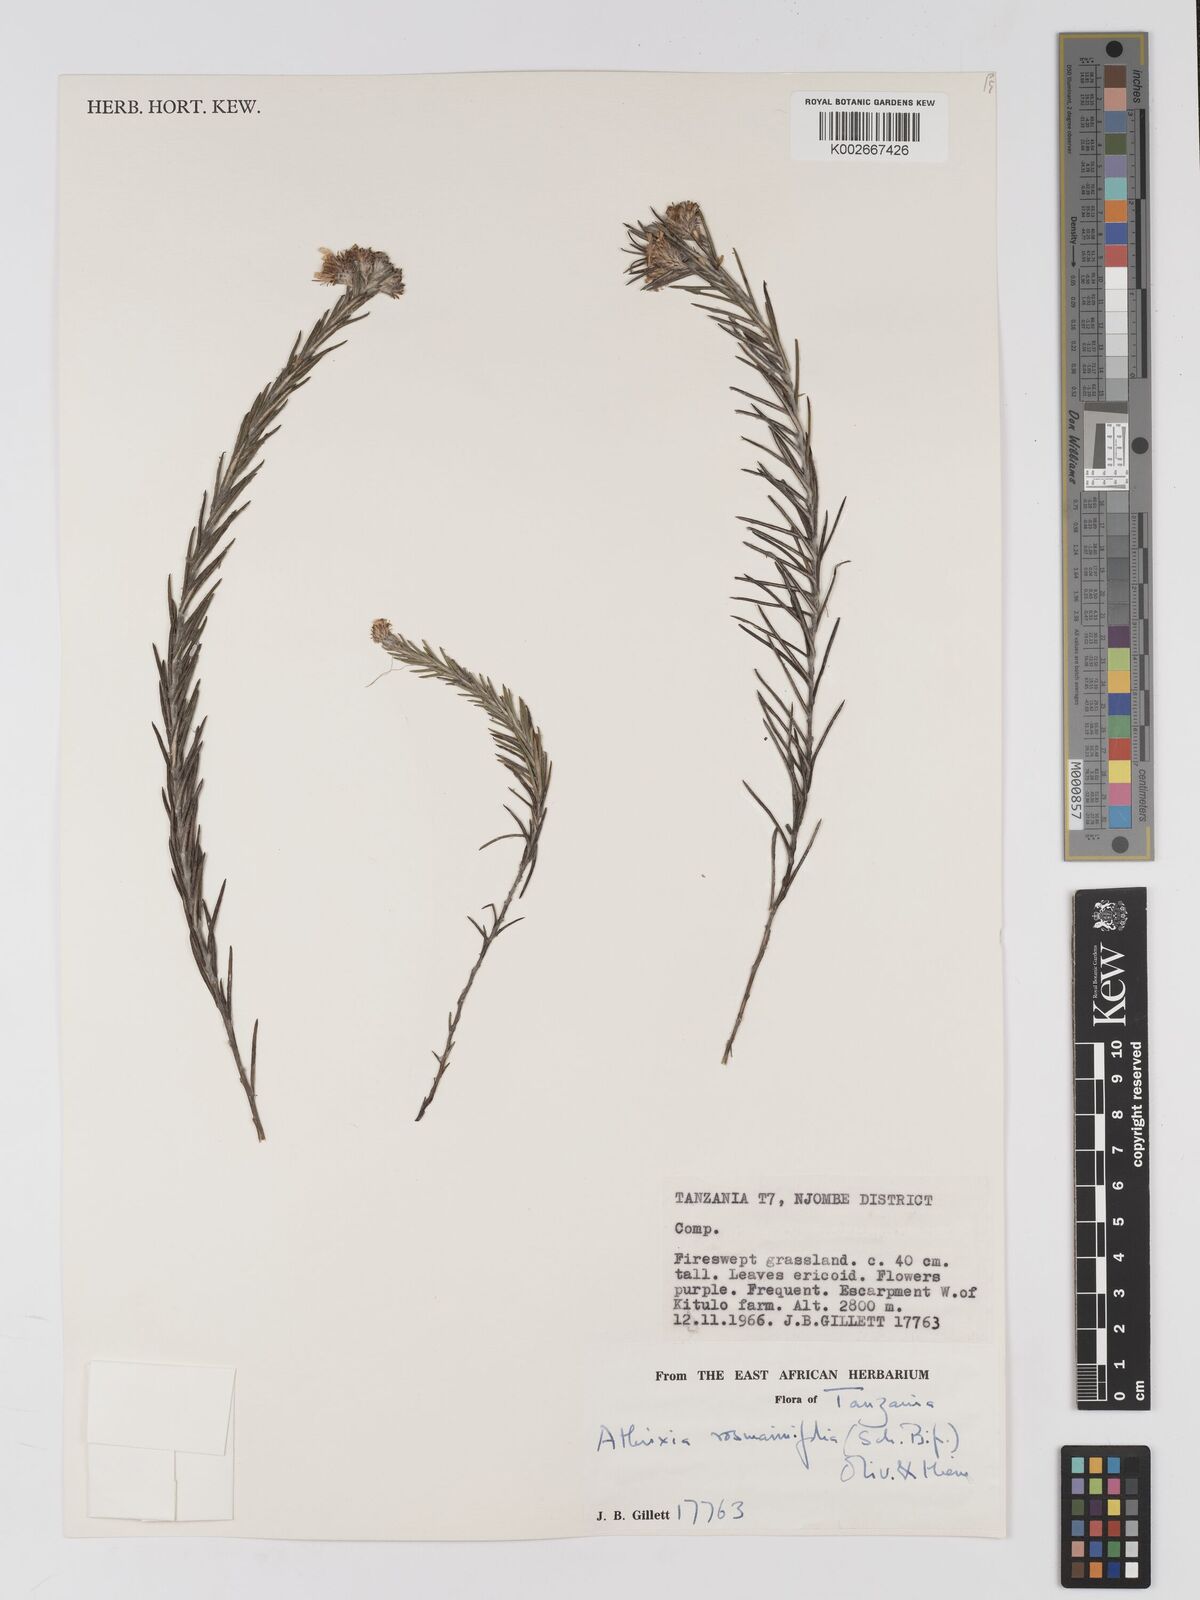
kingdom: Plantae
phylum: Tracheophyta
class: Magnoliopsida
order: Asterales
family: Asteraceae
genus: Athrixia
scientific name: Athrixia rosmarinifolia
